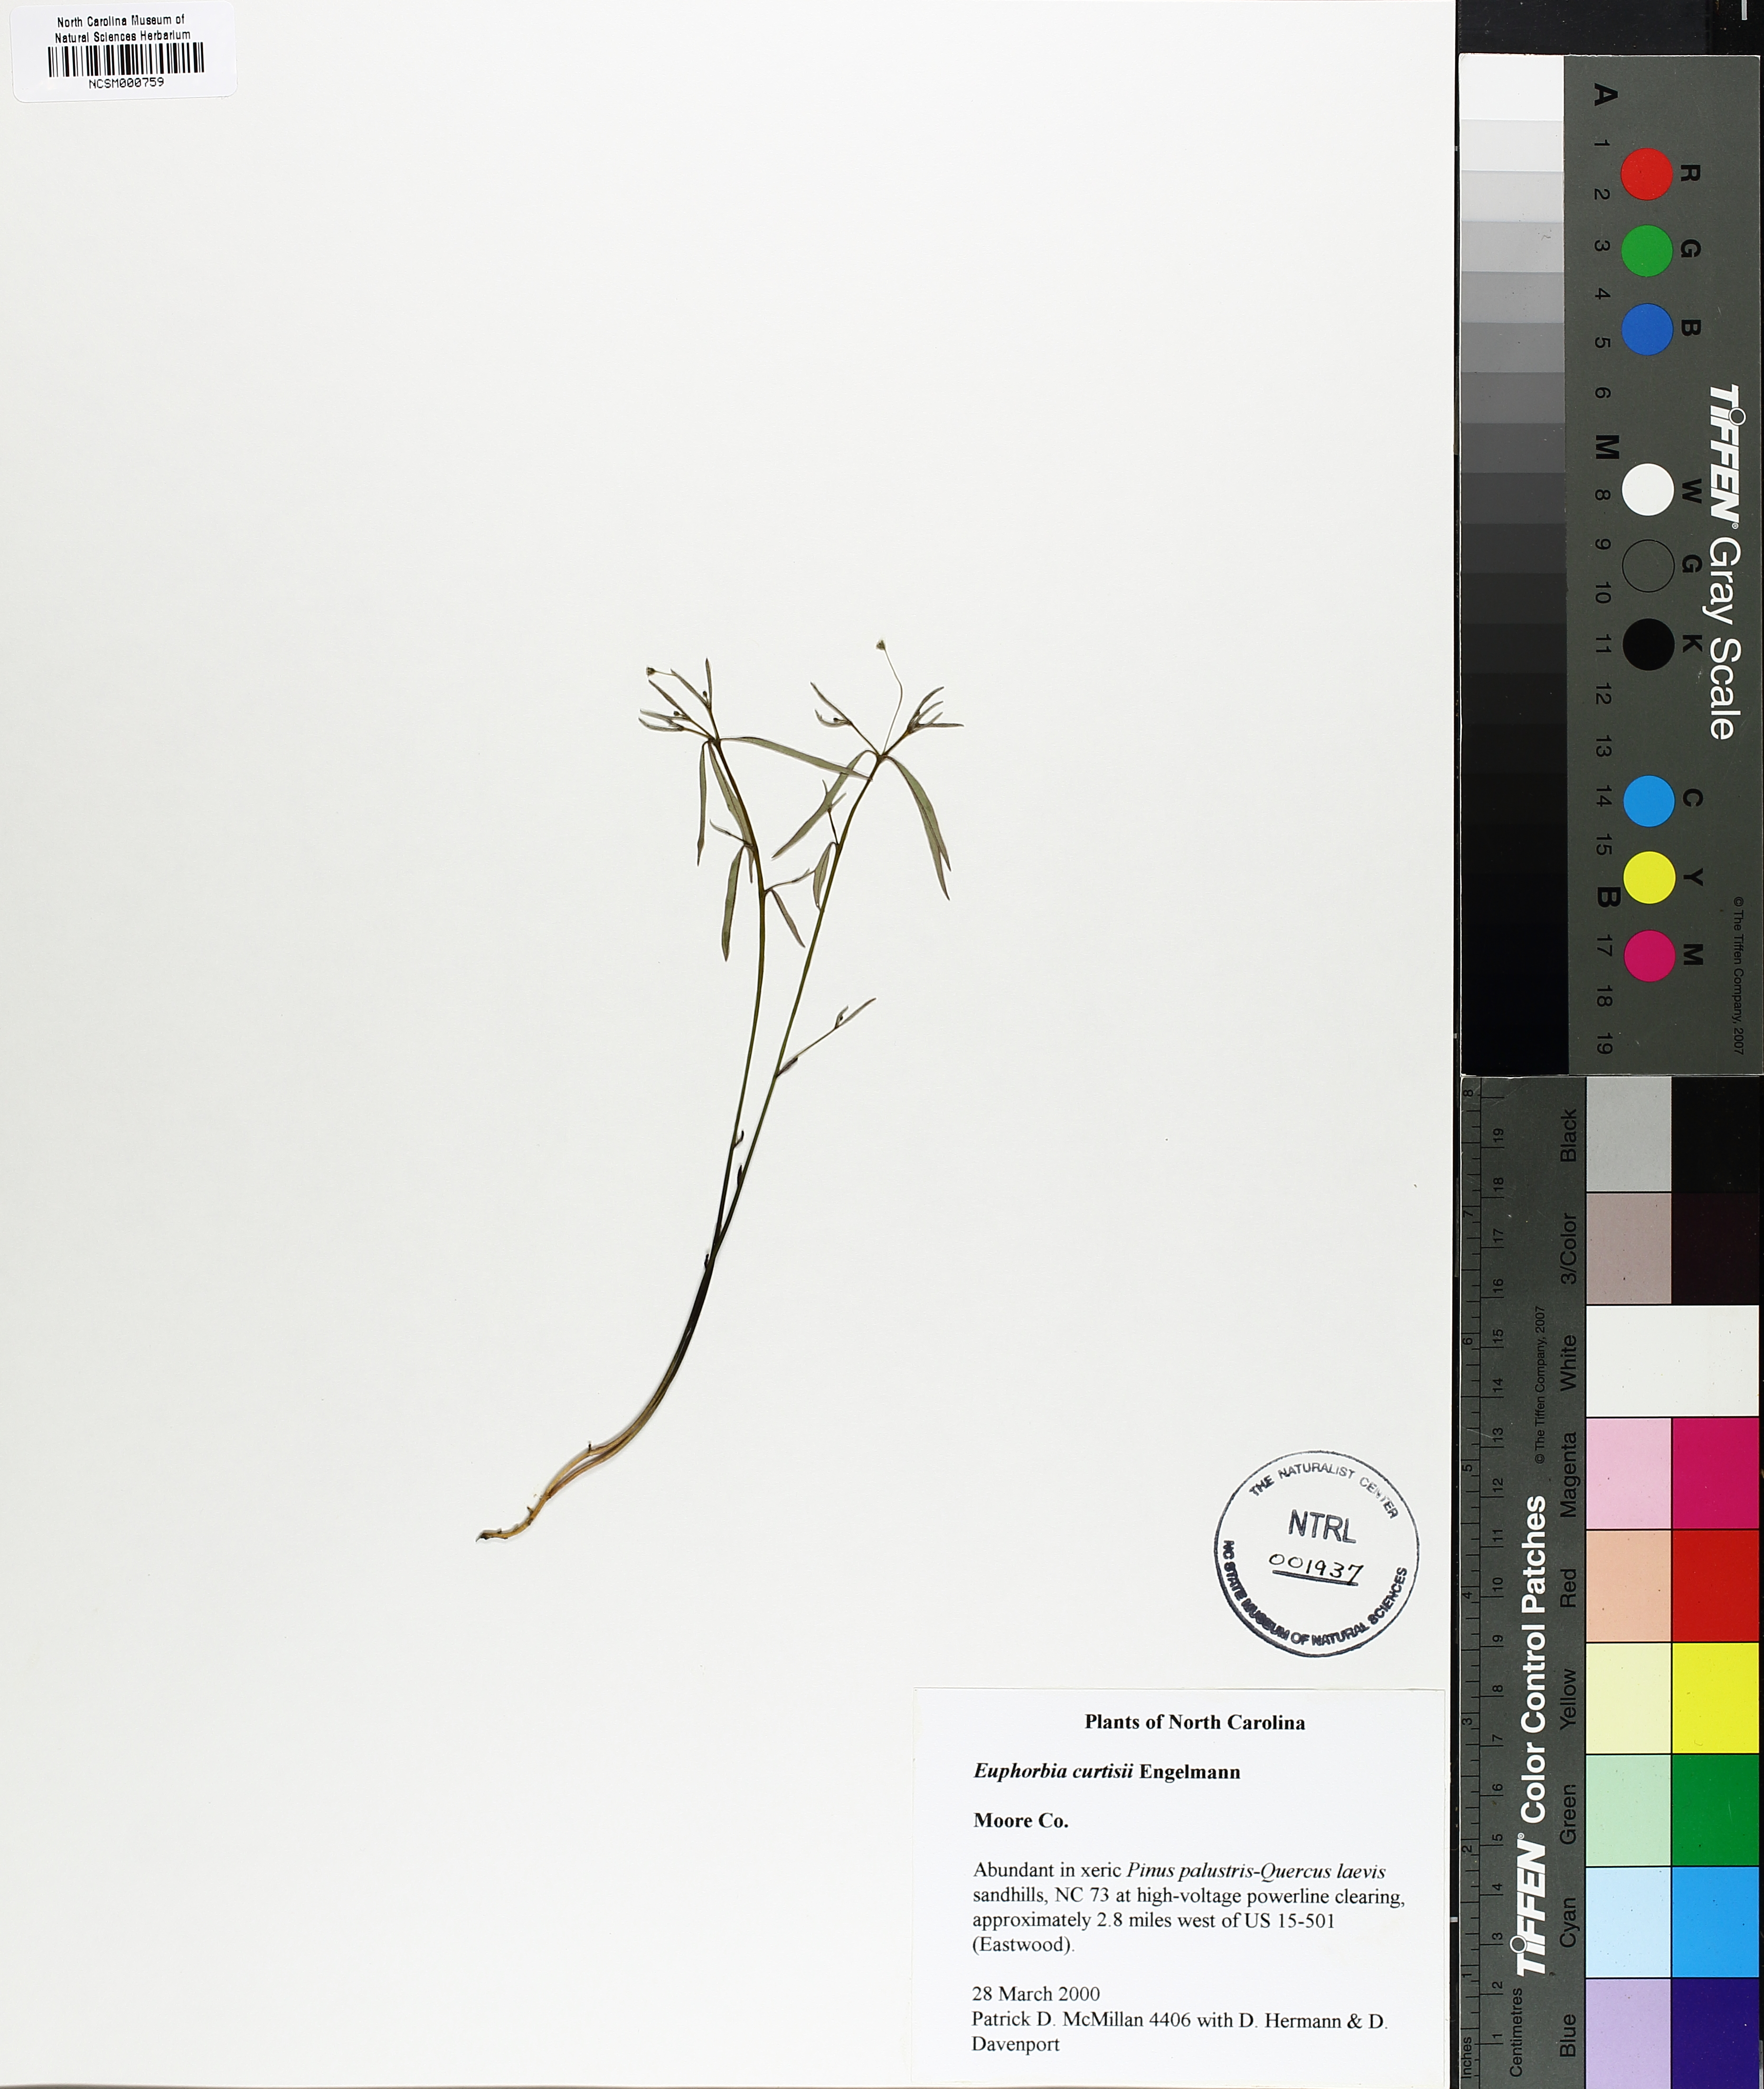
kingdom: Plantae
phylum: Tracheophyta
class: Magnoliopsida
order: Malpighiales
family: Euphorbiaceae
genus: Euphorbia
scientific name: Euphorbia curtisii
